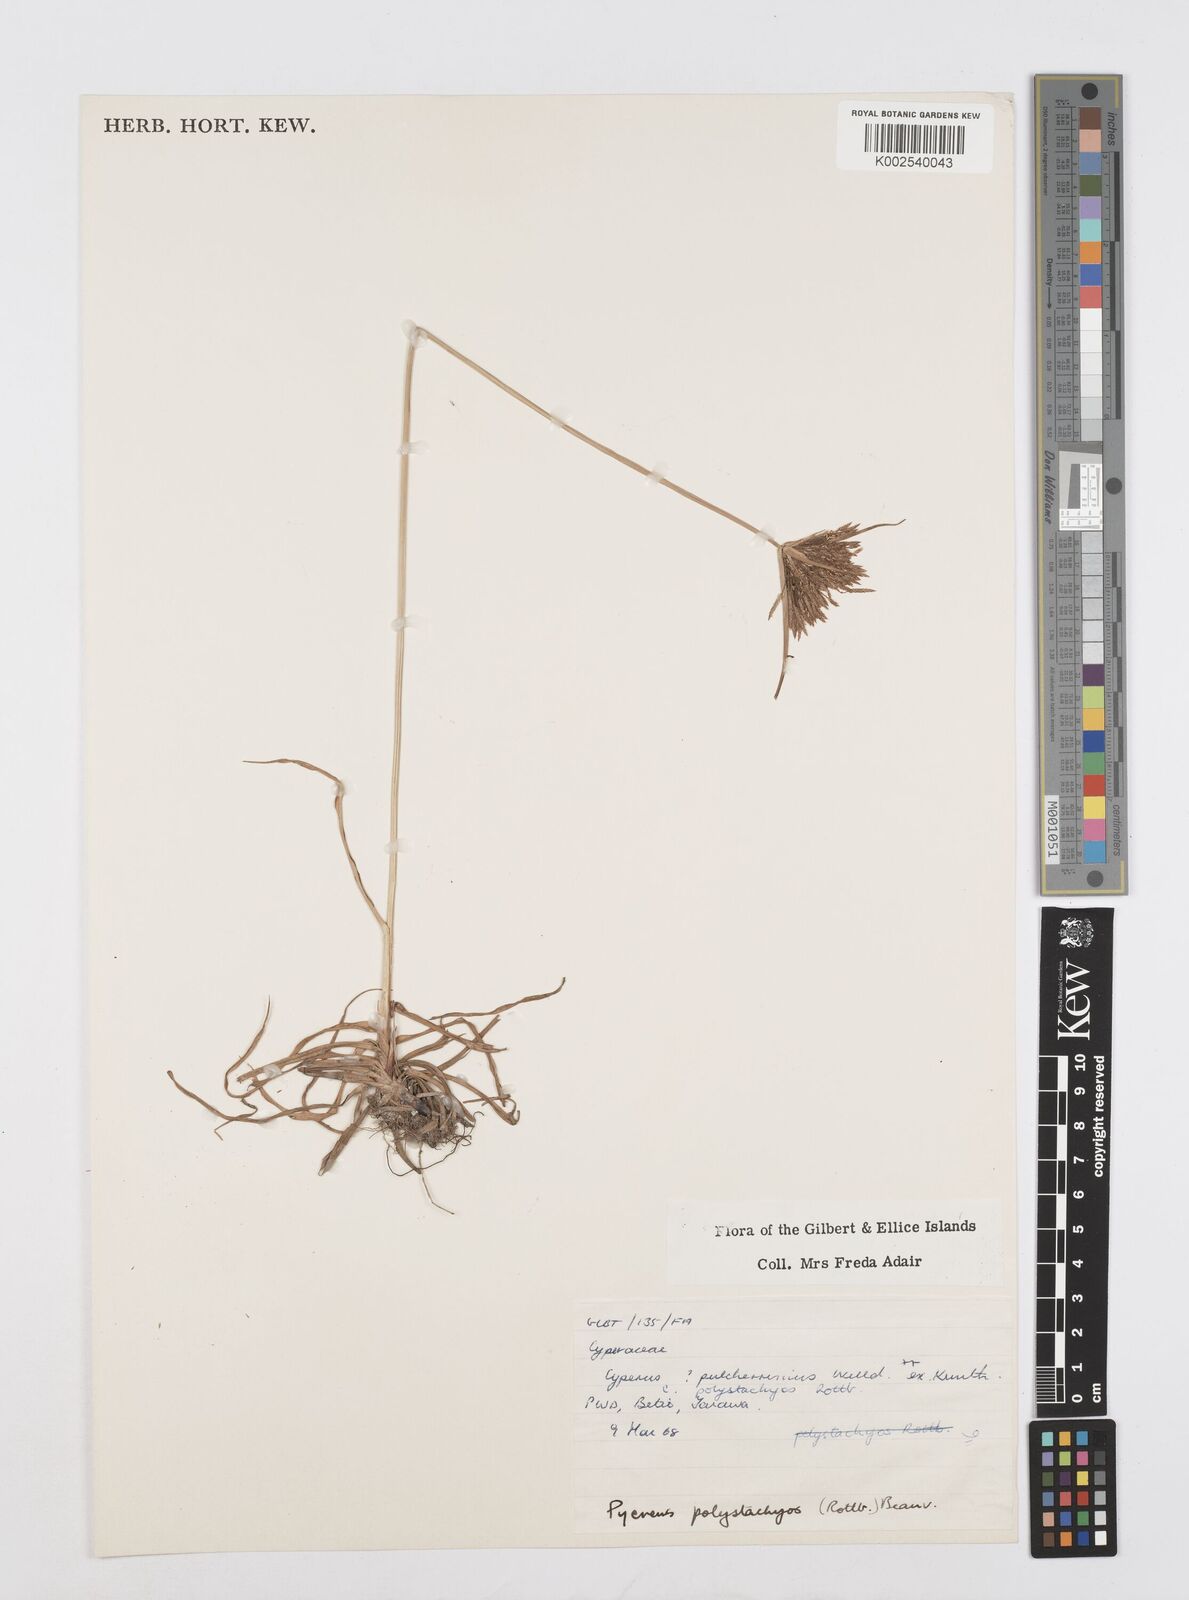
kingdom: Plantae
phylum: Tracheophyta
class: Liliopsida
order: Poales
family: Cyperaceae
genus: Cyperus
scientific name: Cyperus polystachyos
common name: Bunchy flat sedge
